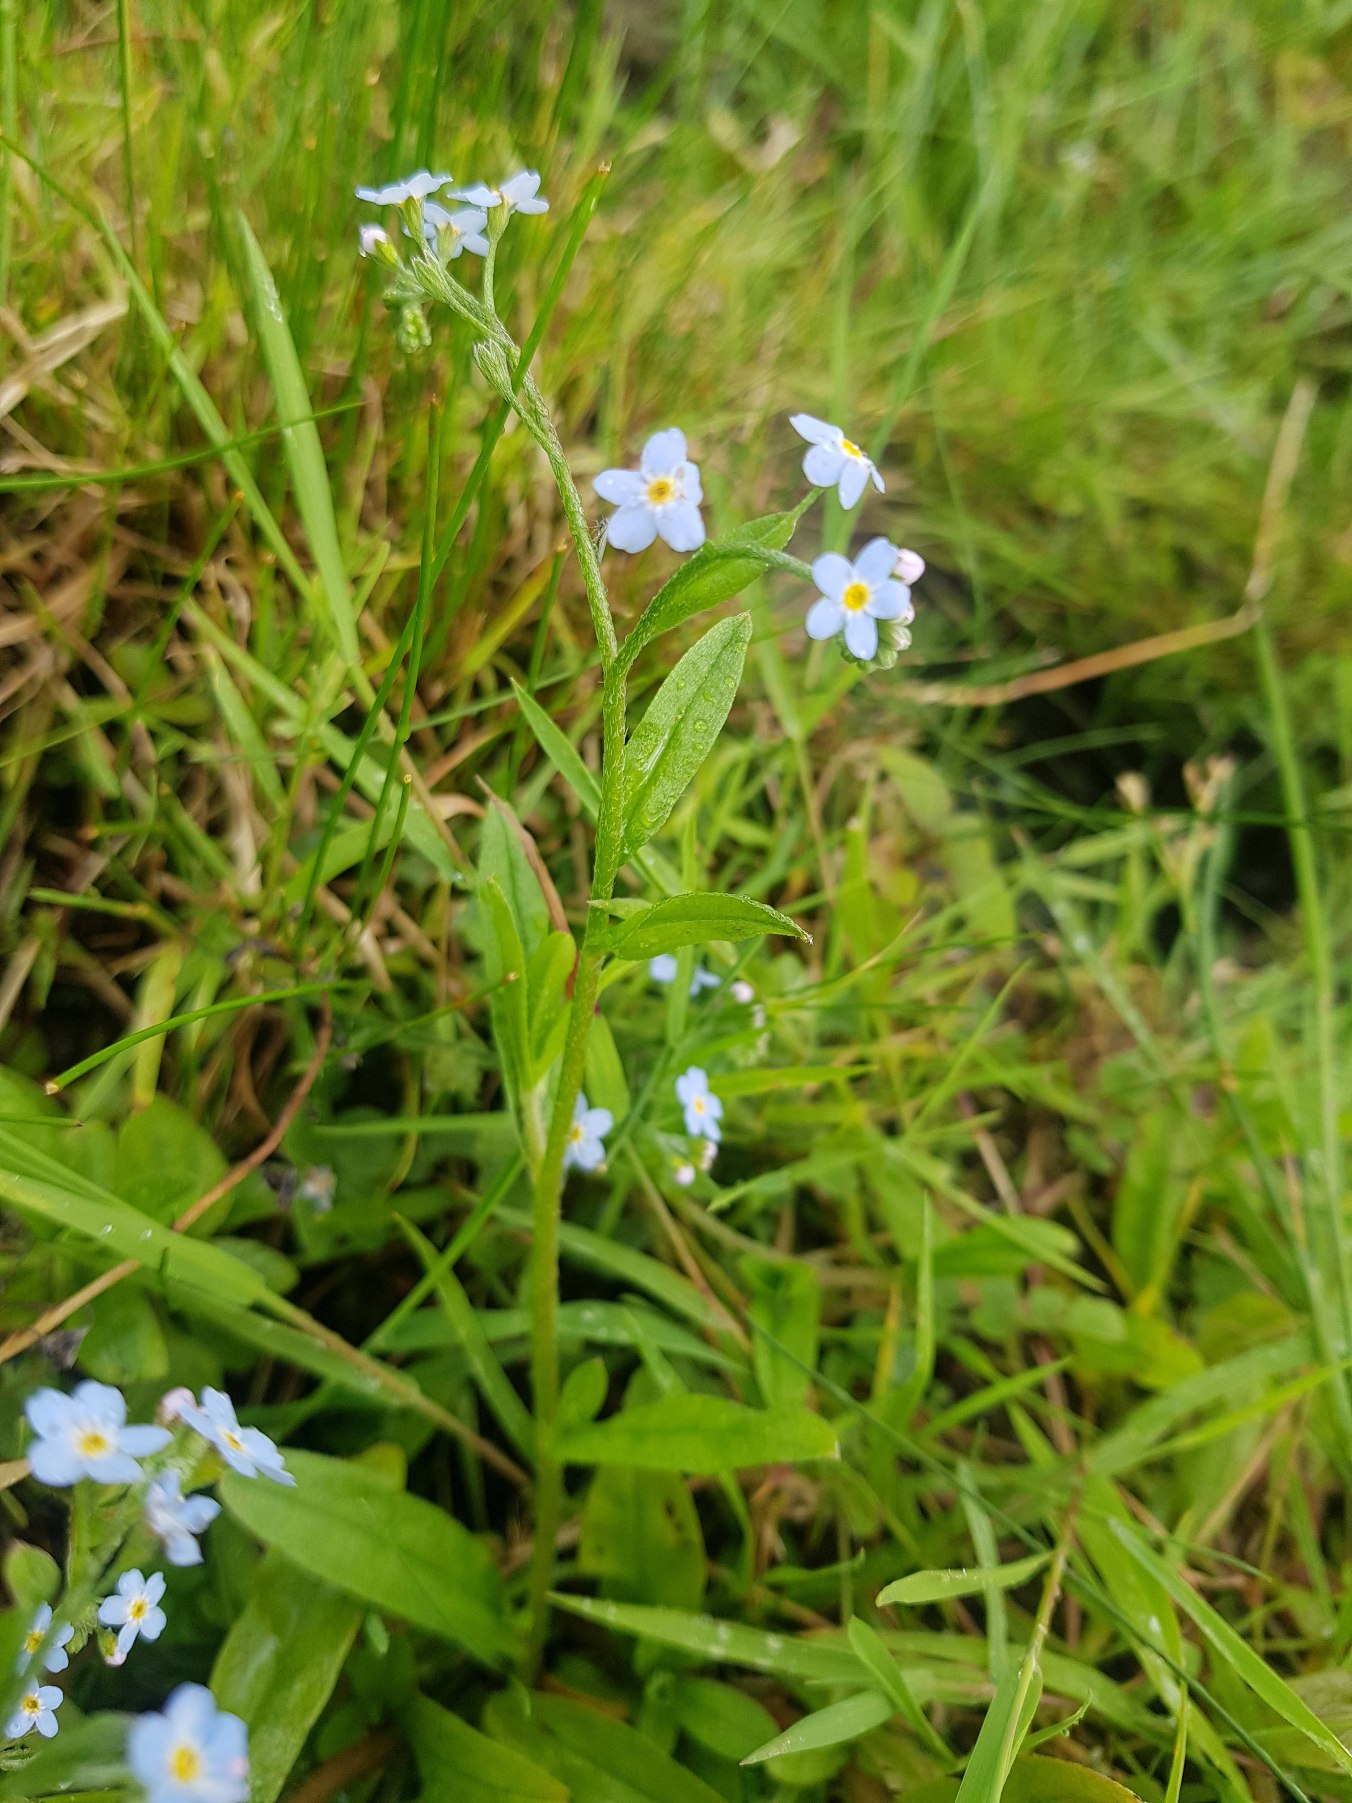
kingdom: Plantae
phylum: Tracheophyta
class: Magnoliopsida
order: Boraginales
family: Boraginaceae
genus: Myosotis
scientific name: Myosotis scorpioides
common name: Eng-forglemmigej
